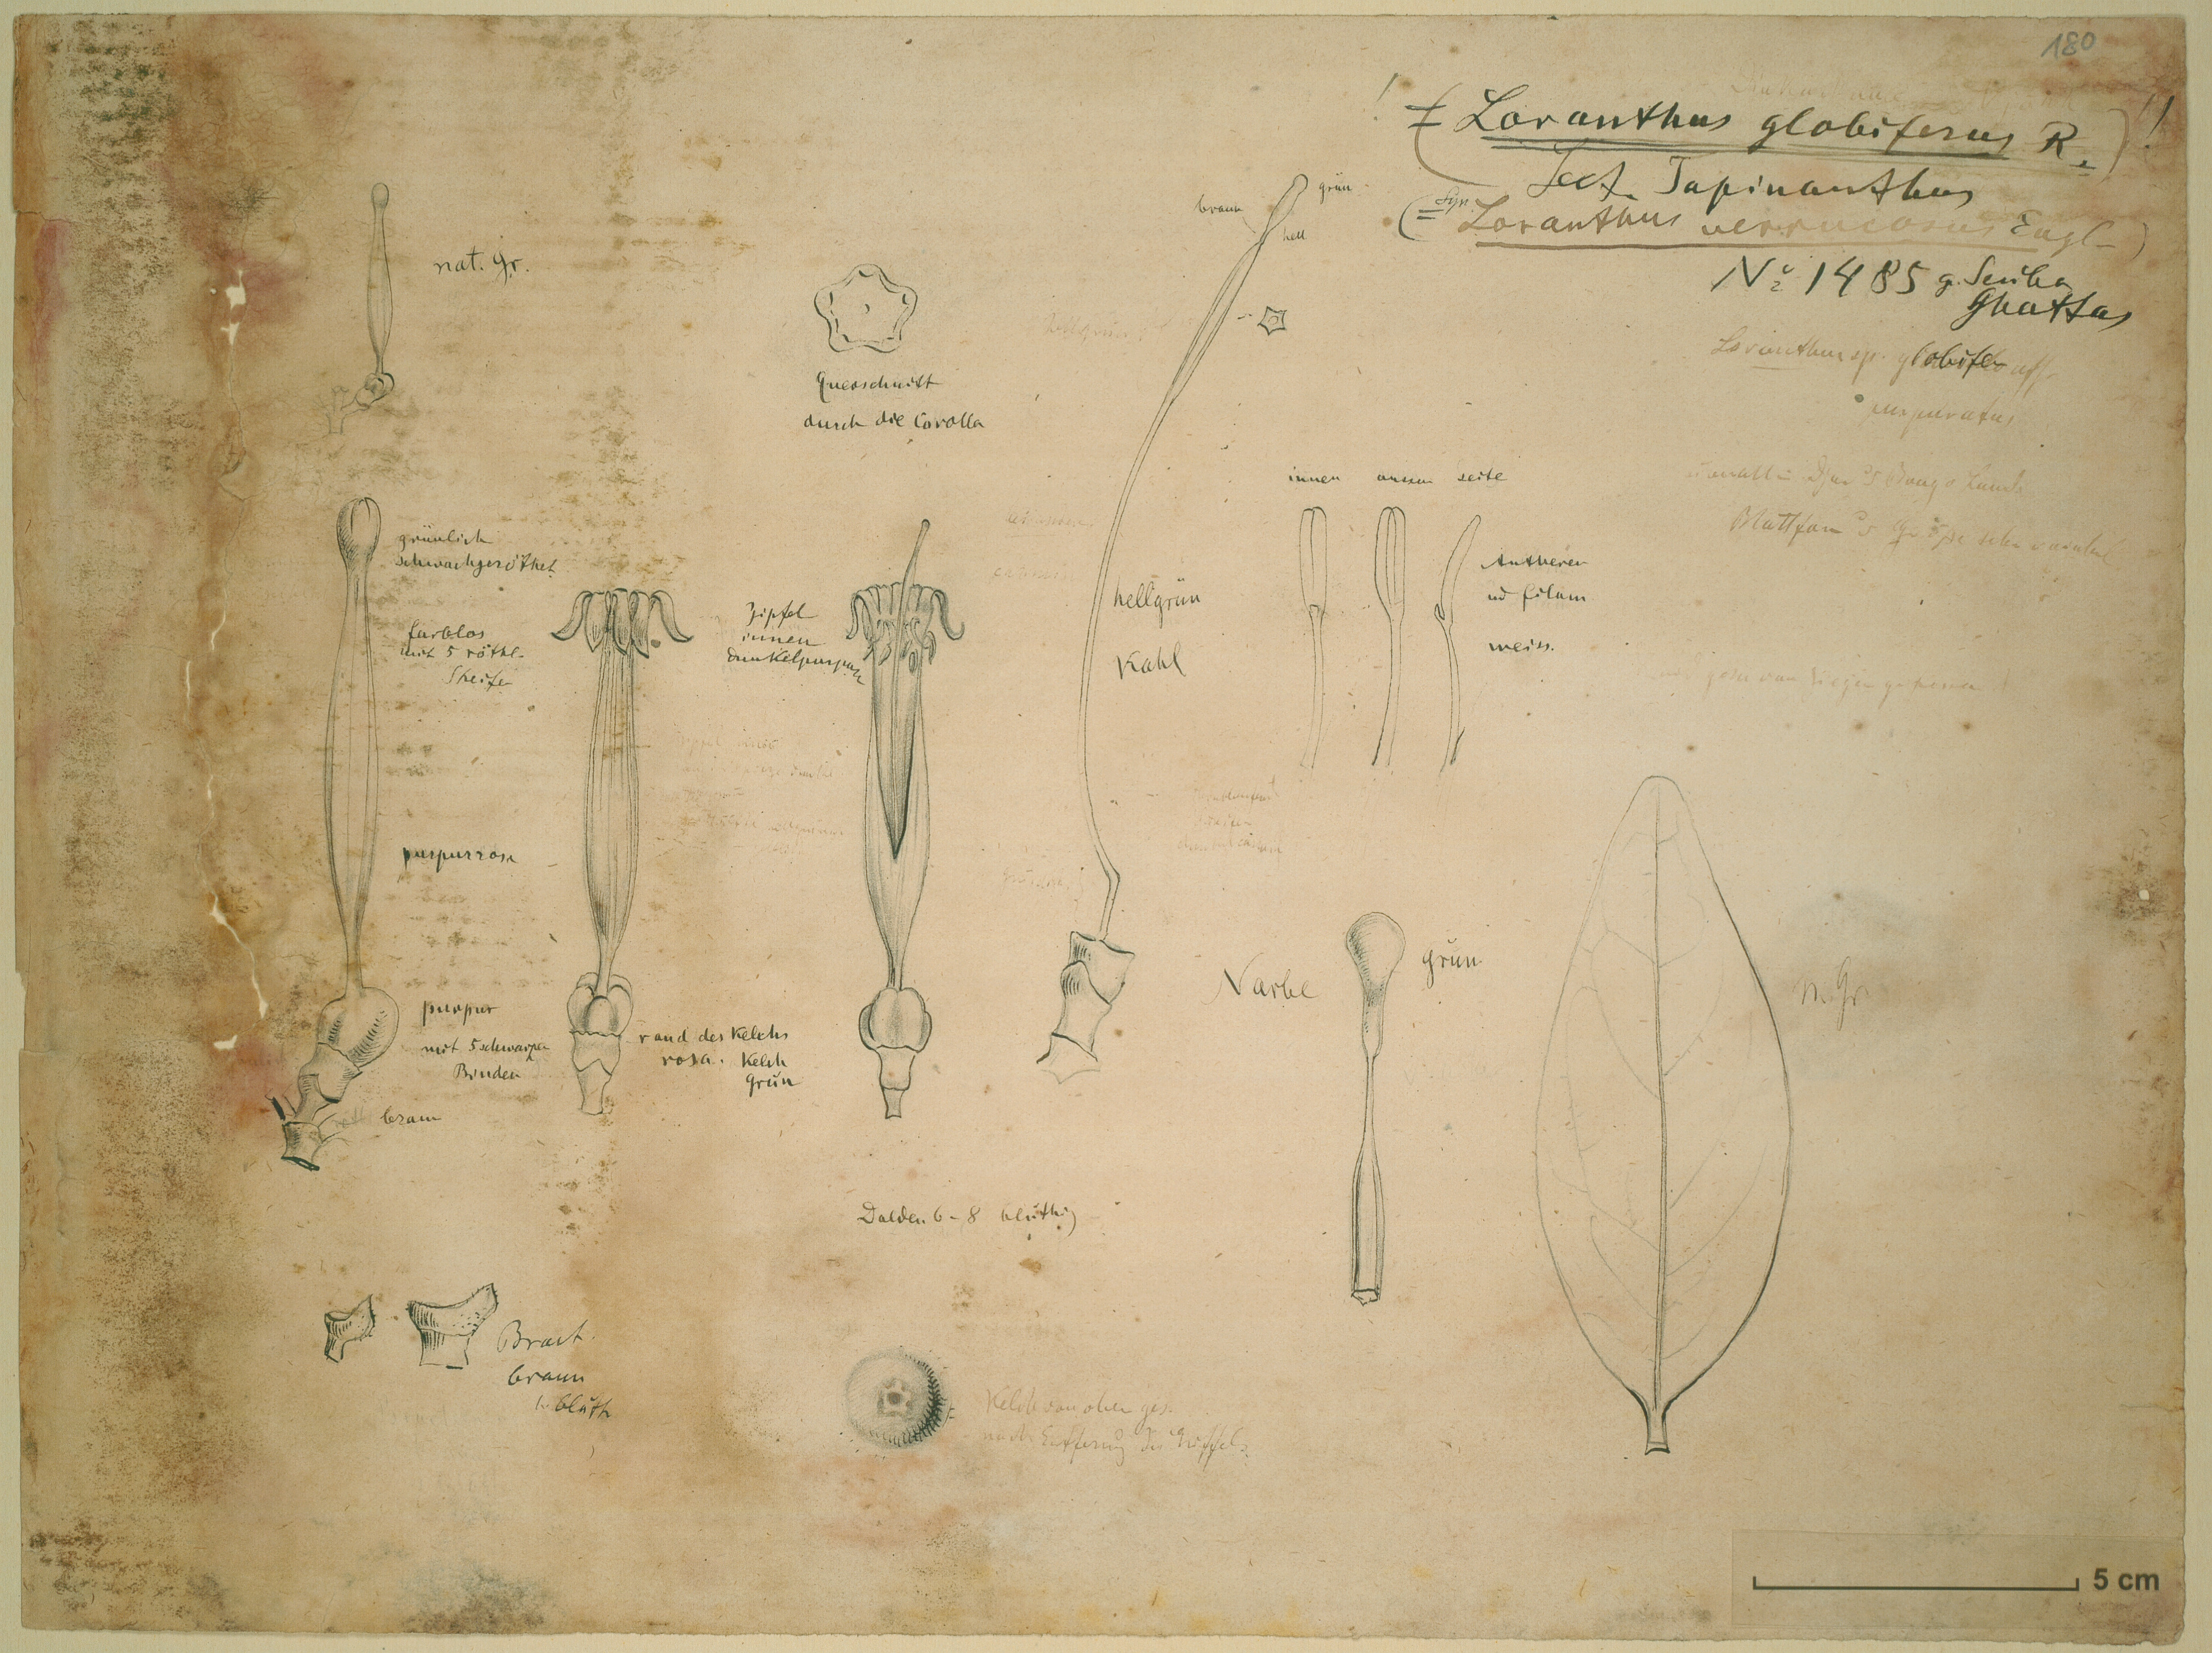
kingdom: Plantae
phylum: Tracheophyta
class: Magnoliopsida
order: Santalales
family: Loranthaceae
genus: Tapinanthus
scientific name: Tapinanthus globifer
